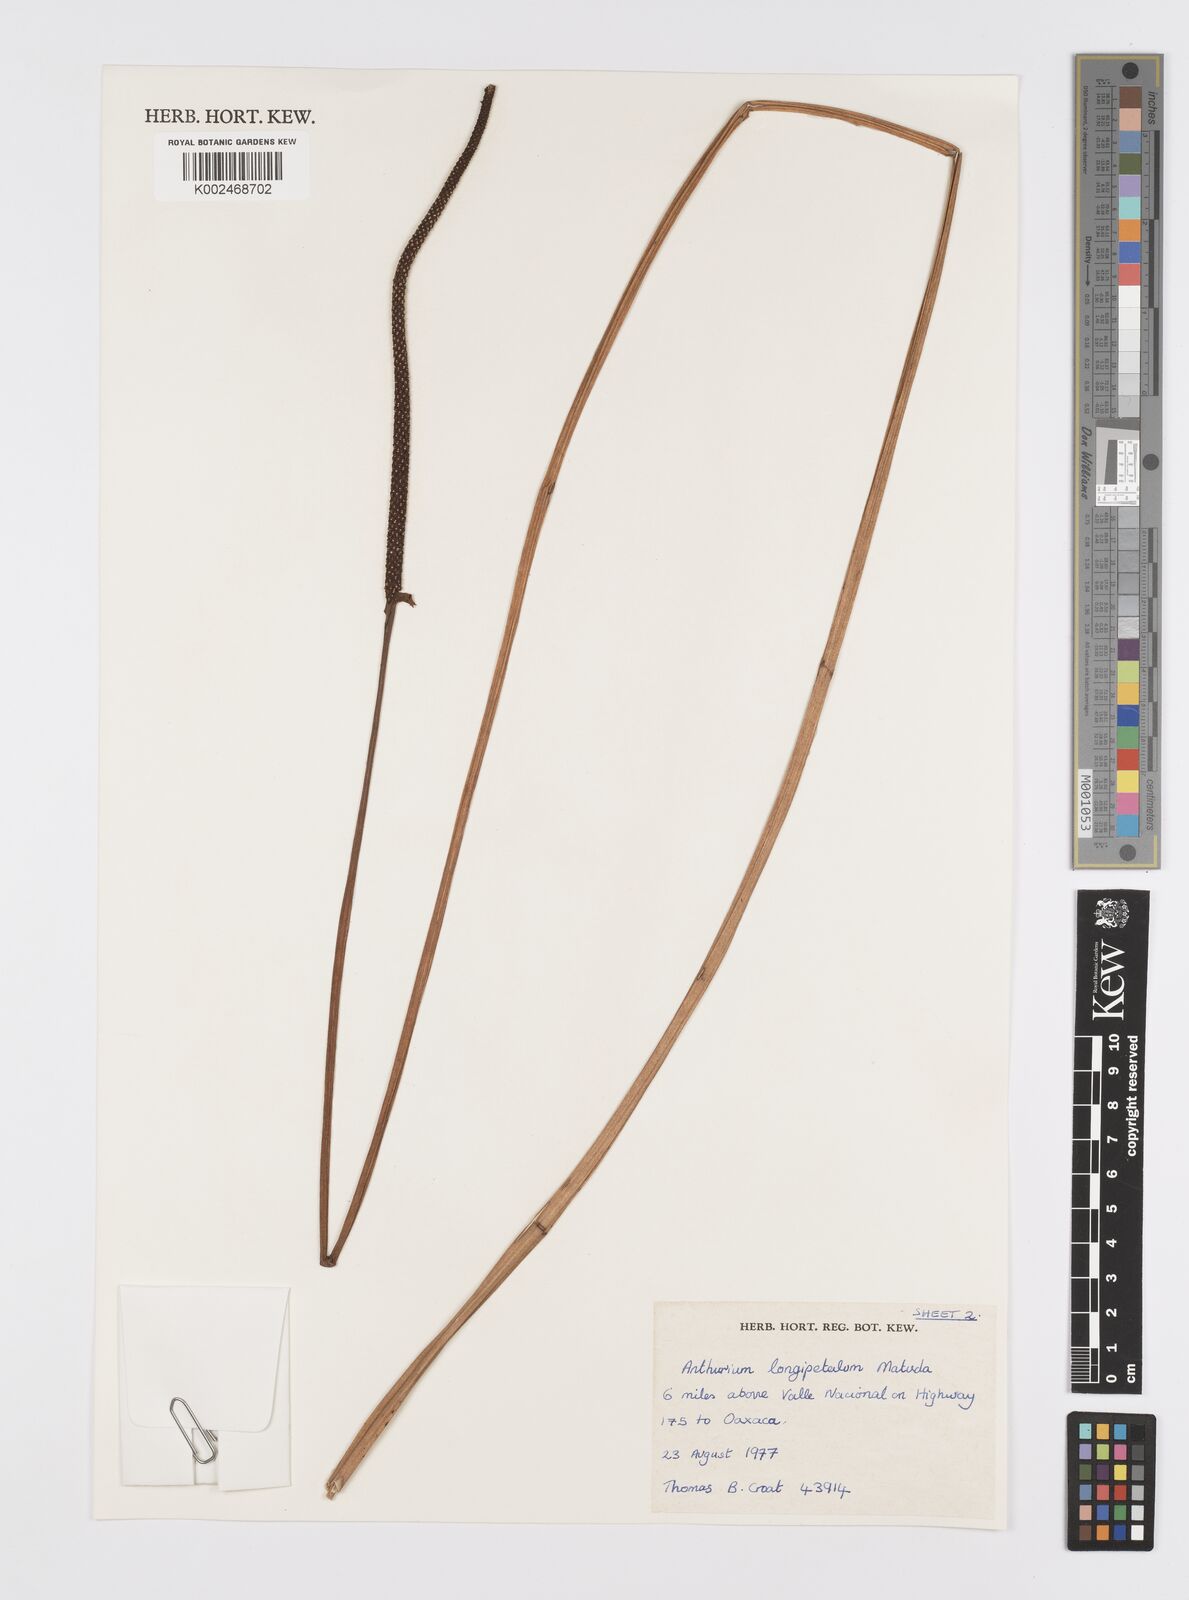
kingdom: Plantae
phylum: Tracheophyta
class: Liliopsida
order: Alismatales
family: Araceae
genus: Anthurium
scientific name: Anthurium longipeltatum
